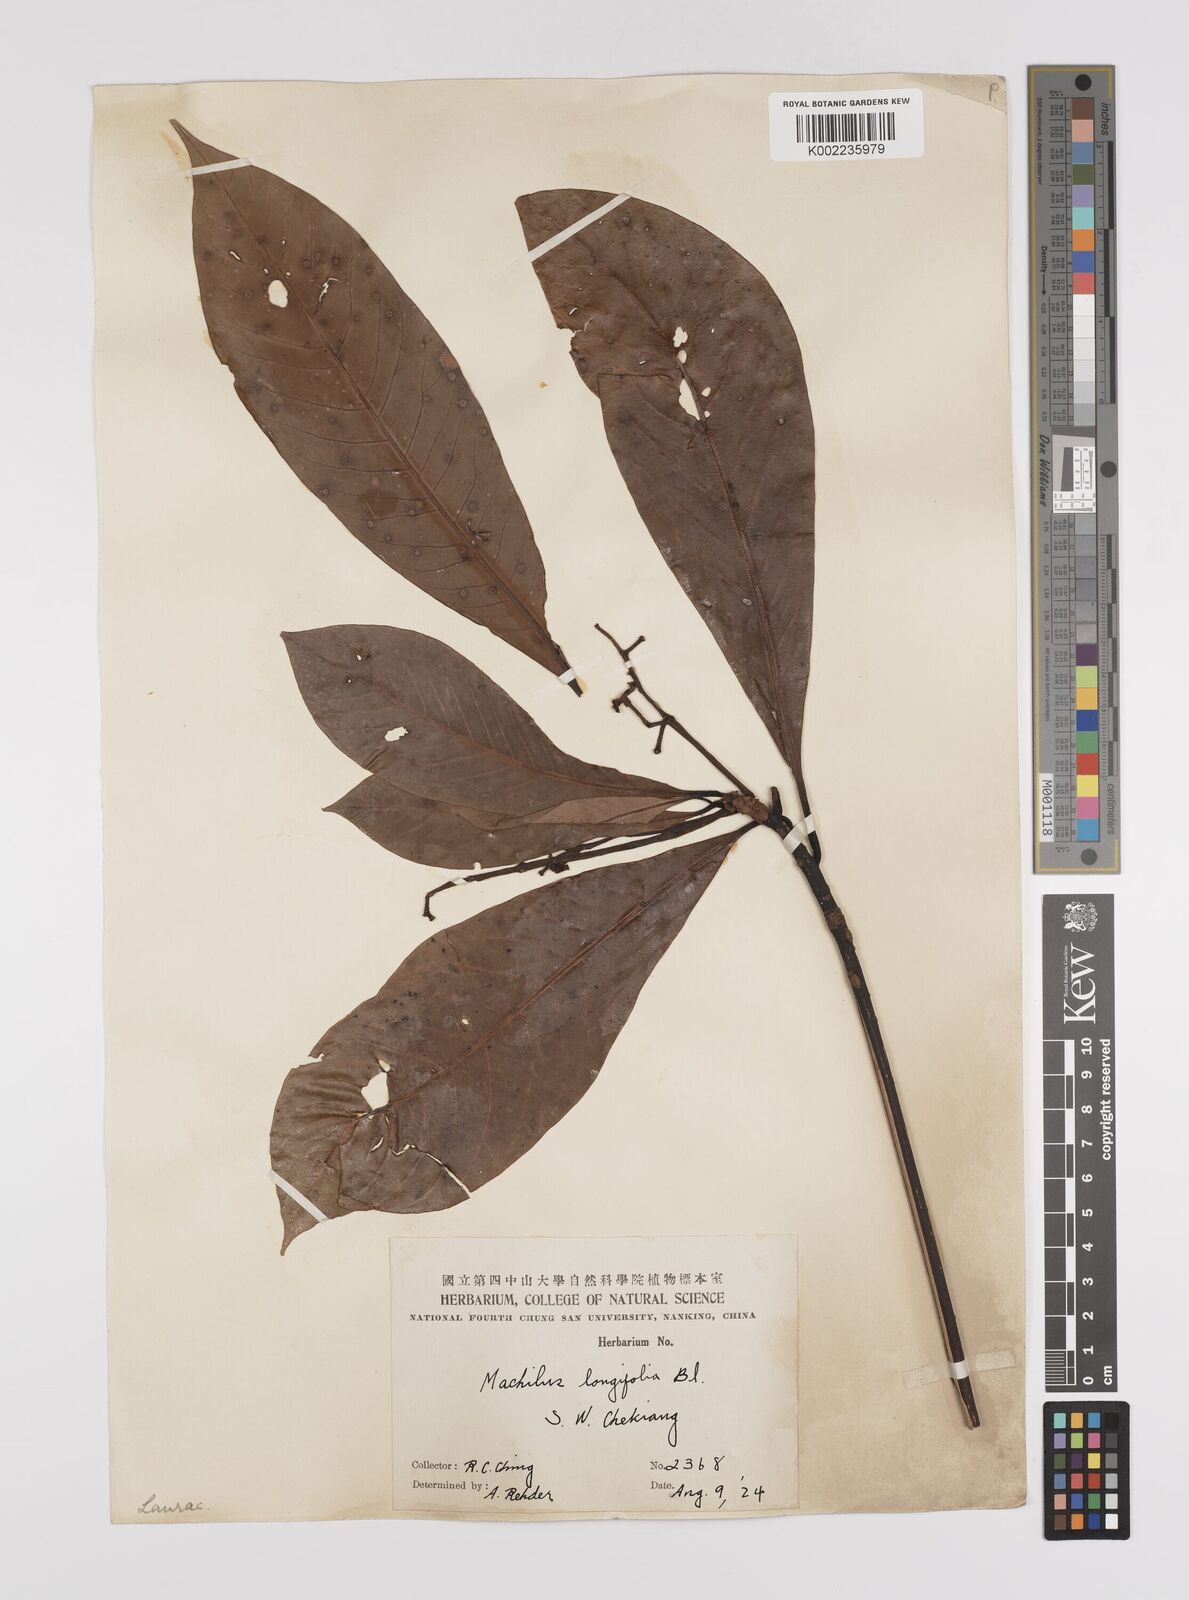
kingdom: Plantae
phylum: Tracheophyta
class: Magnoliopsida
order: Laurales
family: Lauraceae
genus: Persea
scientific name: Persea
